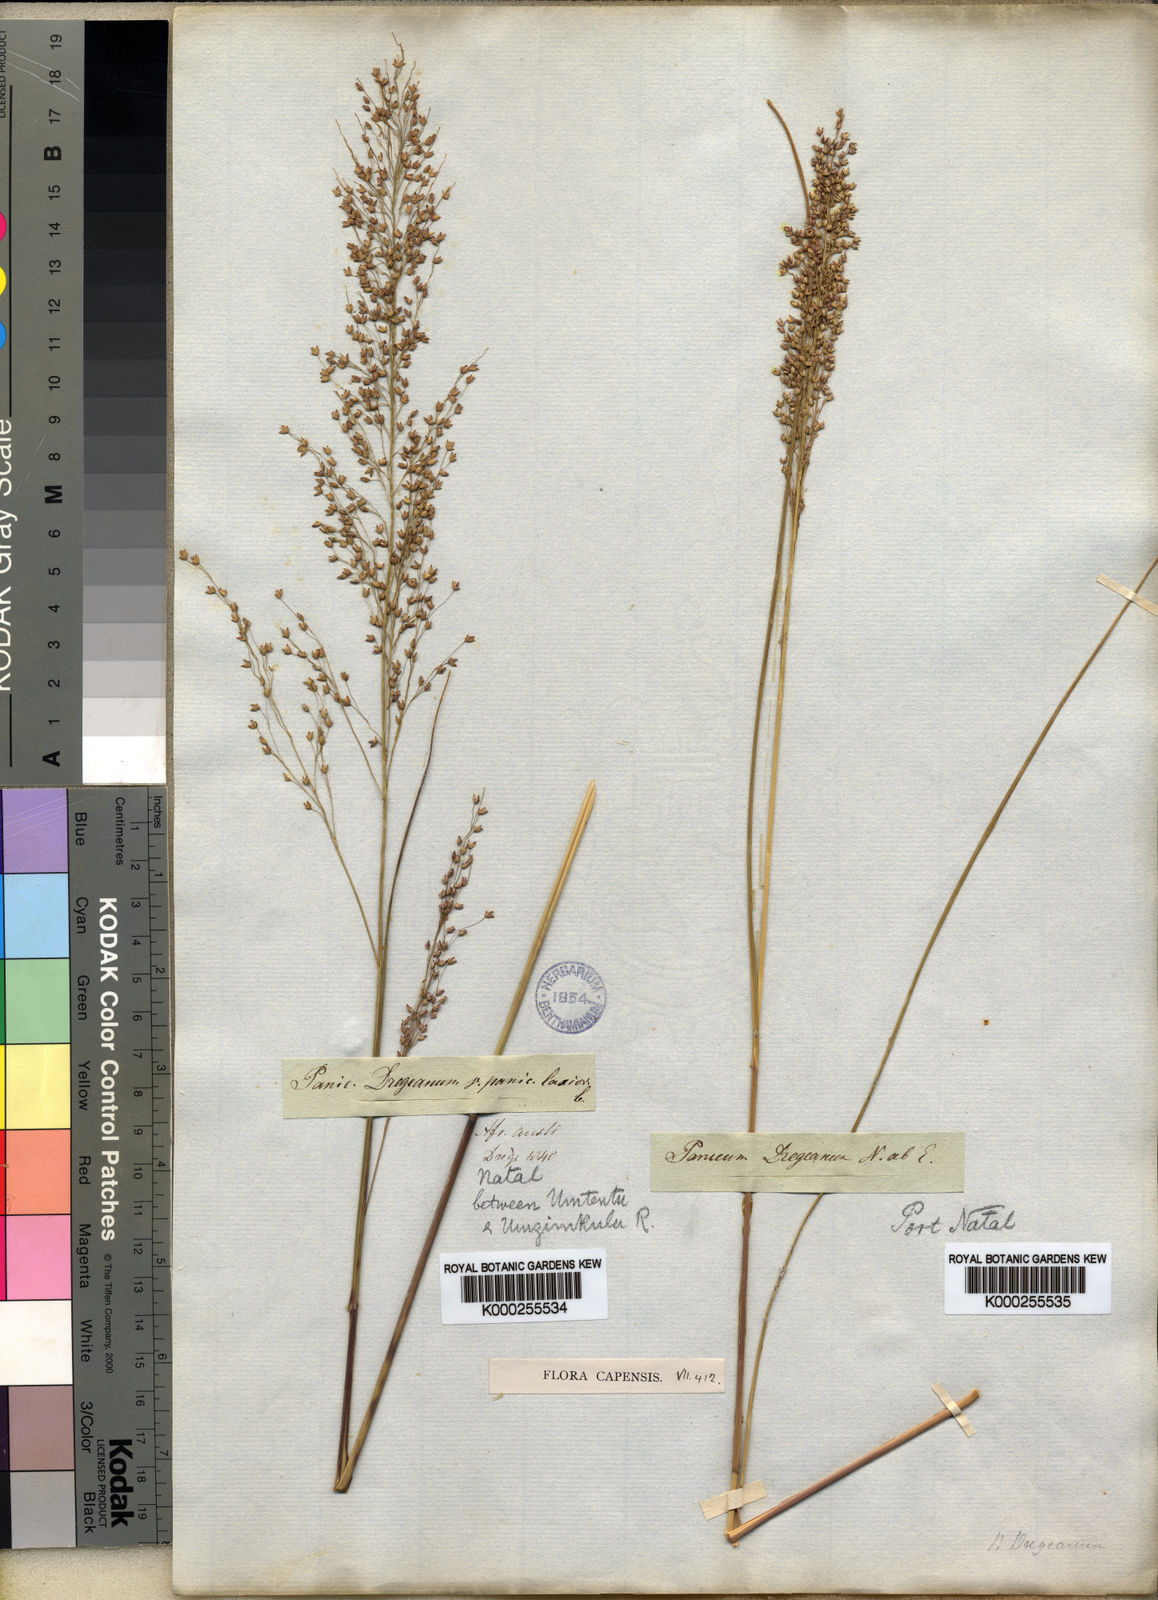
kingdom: Plantae
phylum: Tracheophyta
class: Liliopsida
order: Poales
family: Poaceae
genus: Panicum
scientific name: Panicum dregeanum
